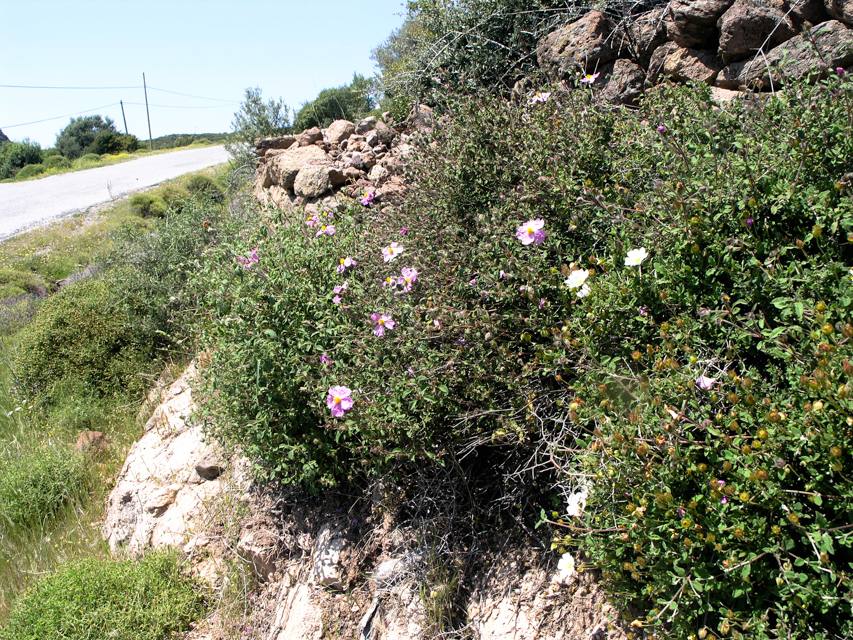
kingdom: Plantae
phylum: Tracheophyta
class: Magnoliopsida
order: Malvales
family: Cistaceae
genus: Cistus
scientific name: Cistus creticus
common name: Cretan rockrose
